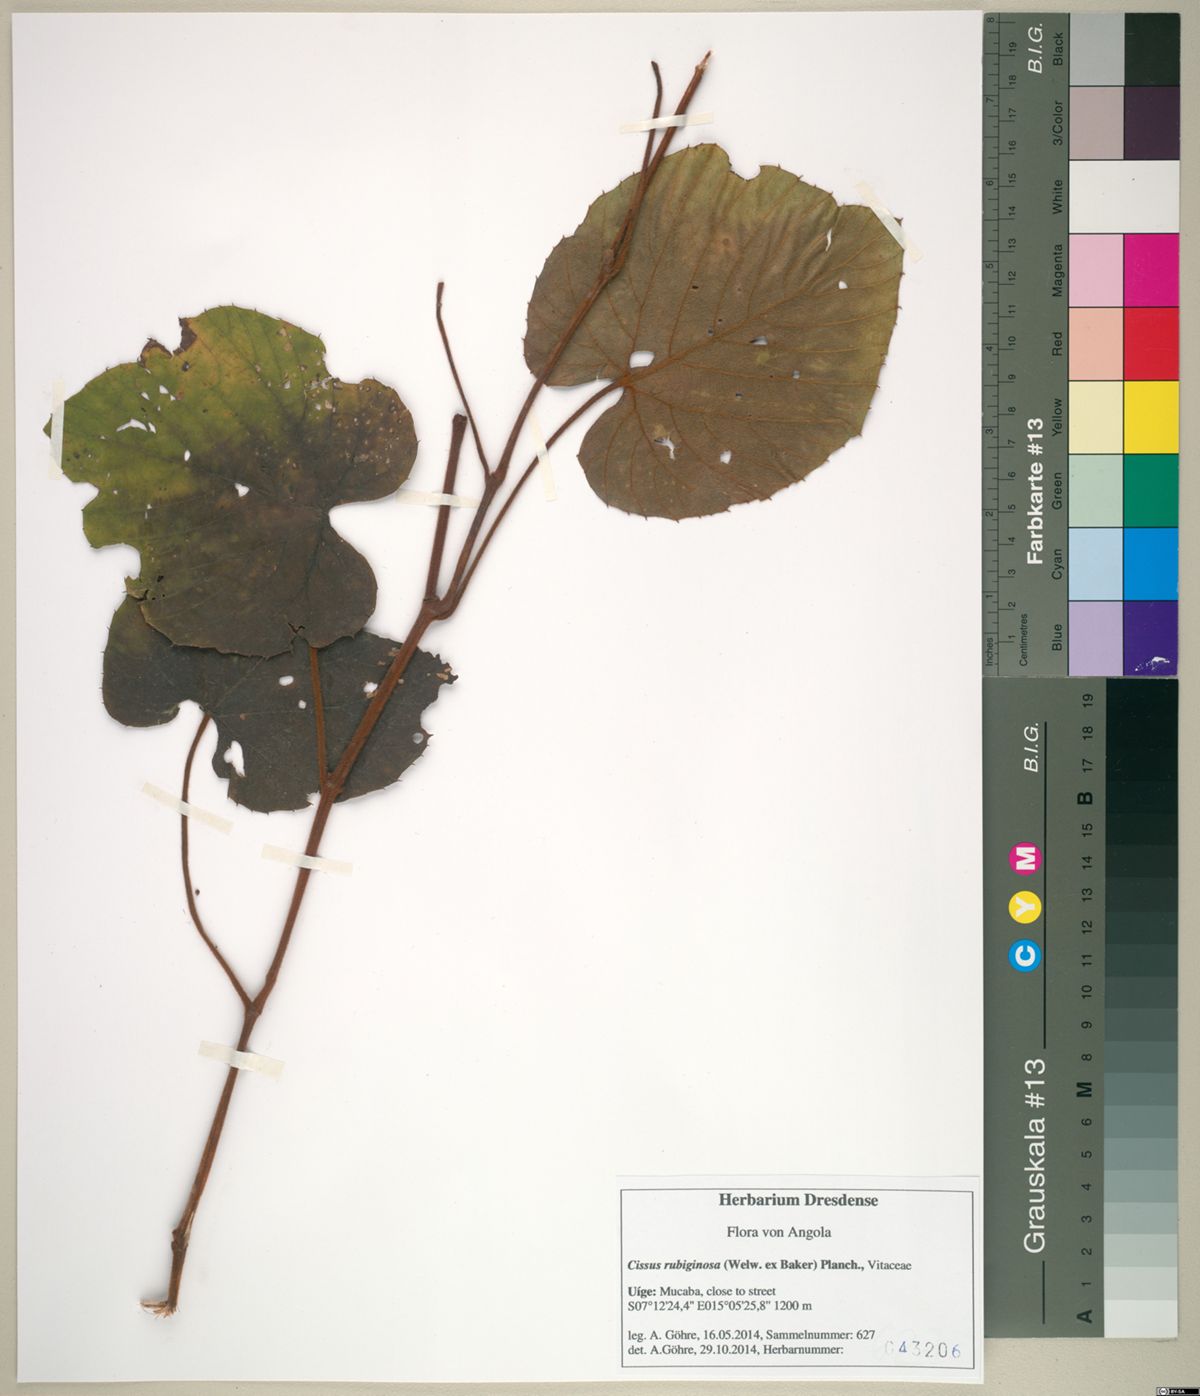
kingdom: Plantae
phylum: Tracheophyta
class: Magnoliopsida
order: Vitales
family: Vitaceae
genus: Cissus
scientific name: Cissus rubiginosa
